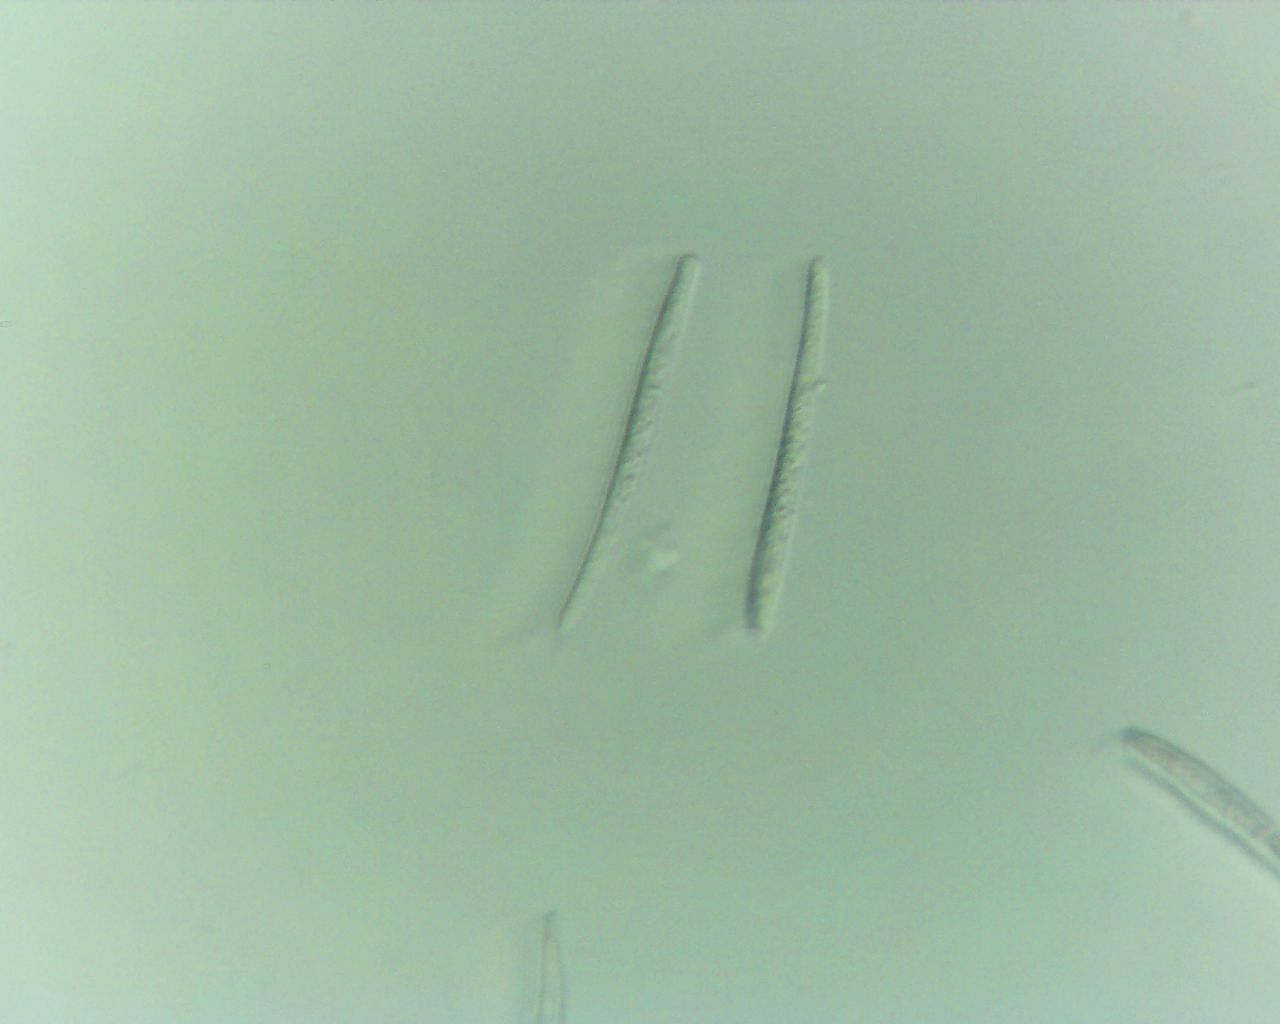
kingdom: Fungi
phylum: Ascomycota
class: Dothideomycetes
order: Mycosphaerellales
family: Mycosphaerellaceae
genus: Mycosphaerella
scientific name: Mycosphaerella podagrariae
